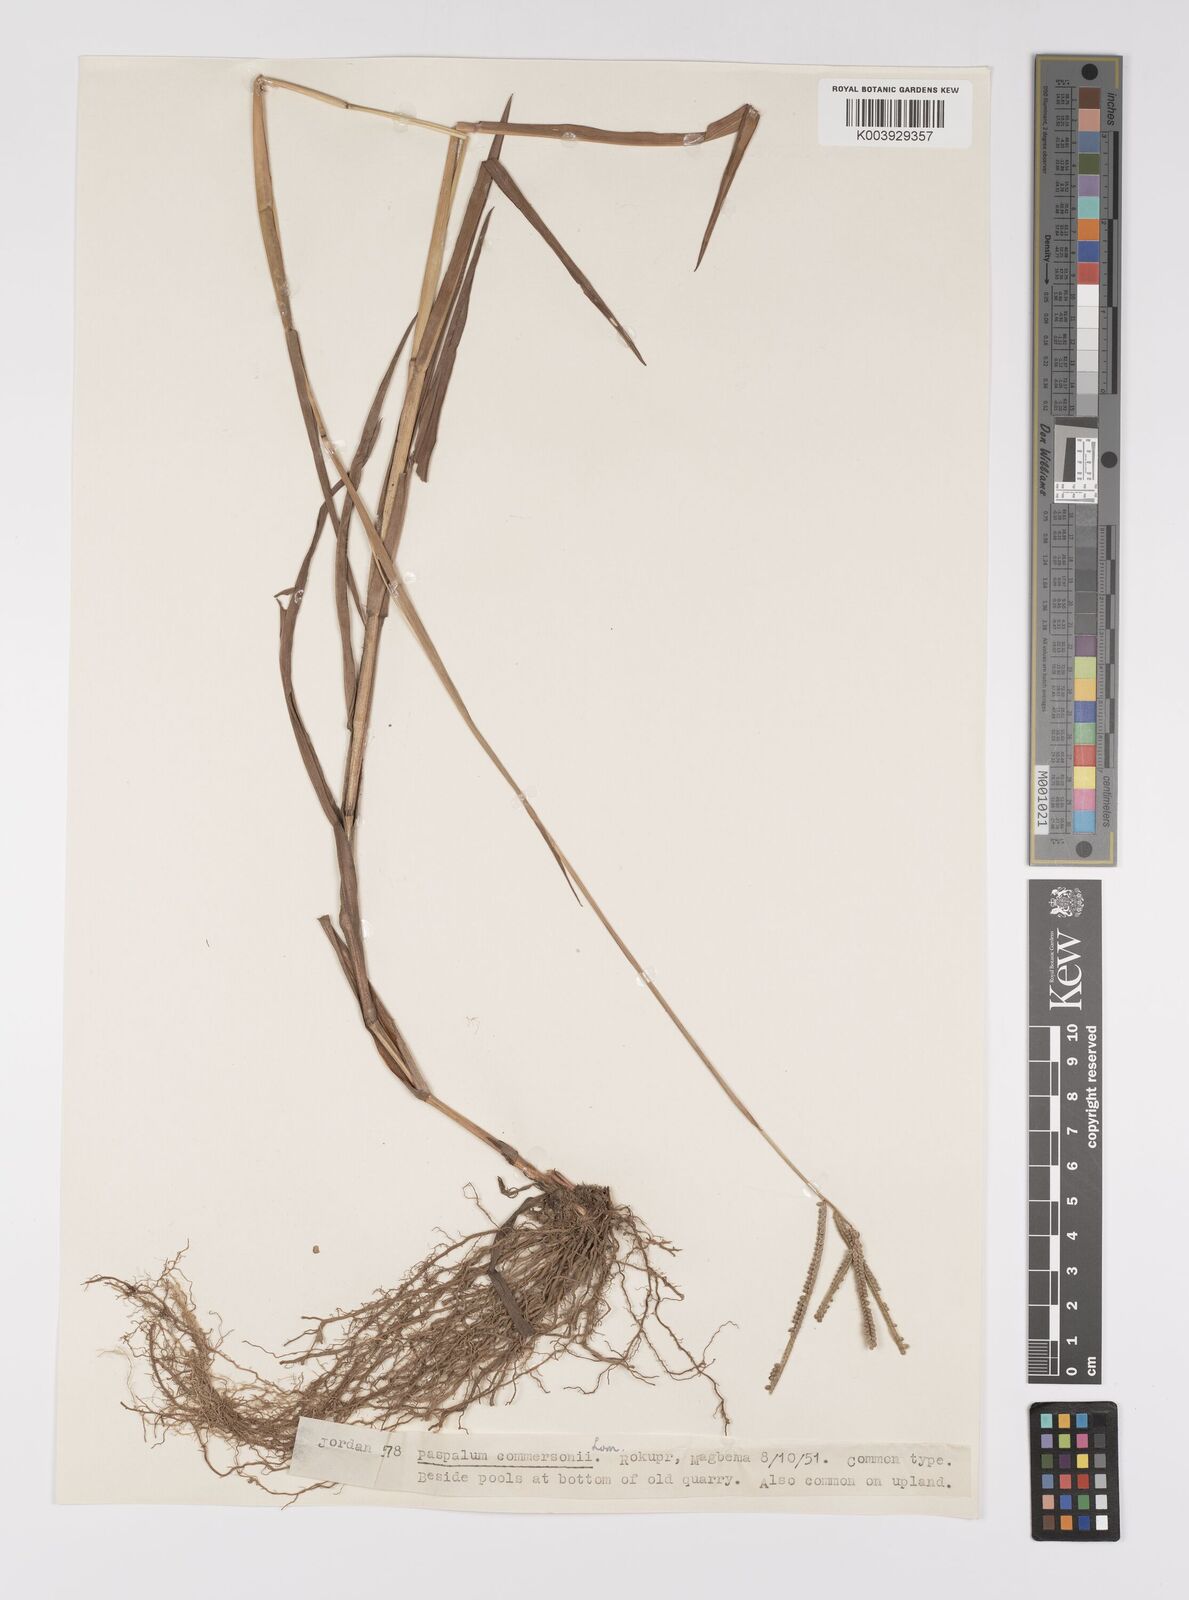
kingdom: Plantae
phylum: Tracheophyta
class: Liliopsida
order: Poales
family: Poaceae
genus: Paspalum
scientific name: Paspalum scrobiculatum
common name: Kodo millet
